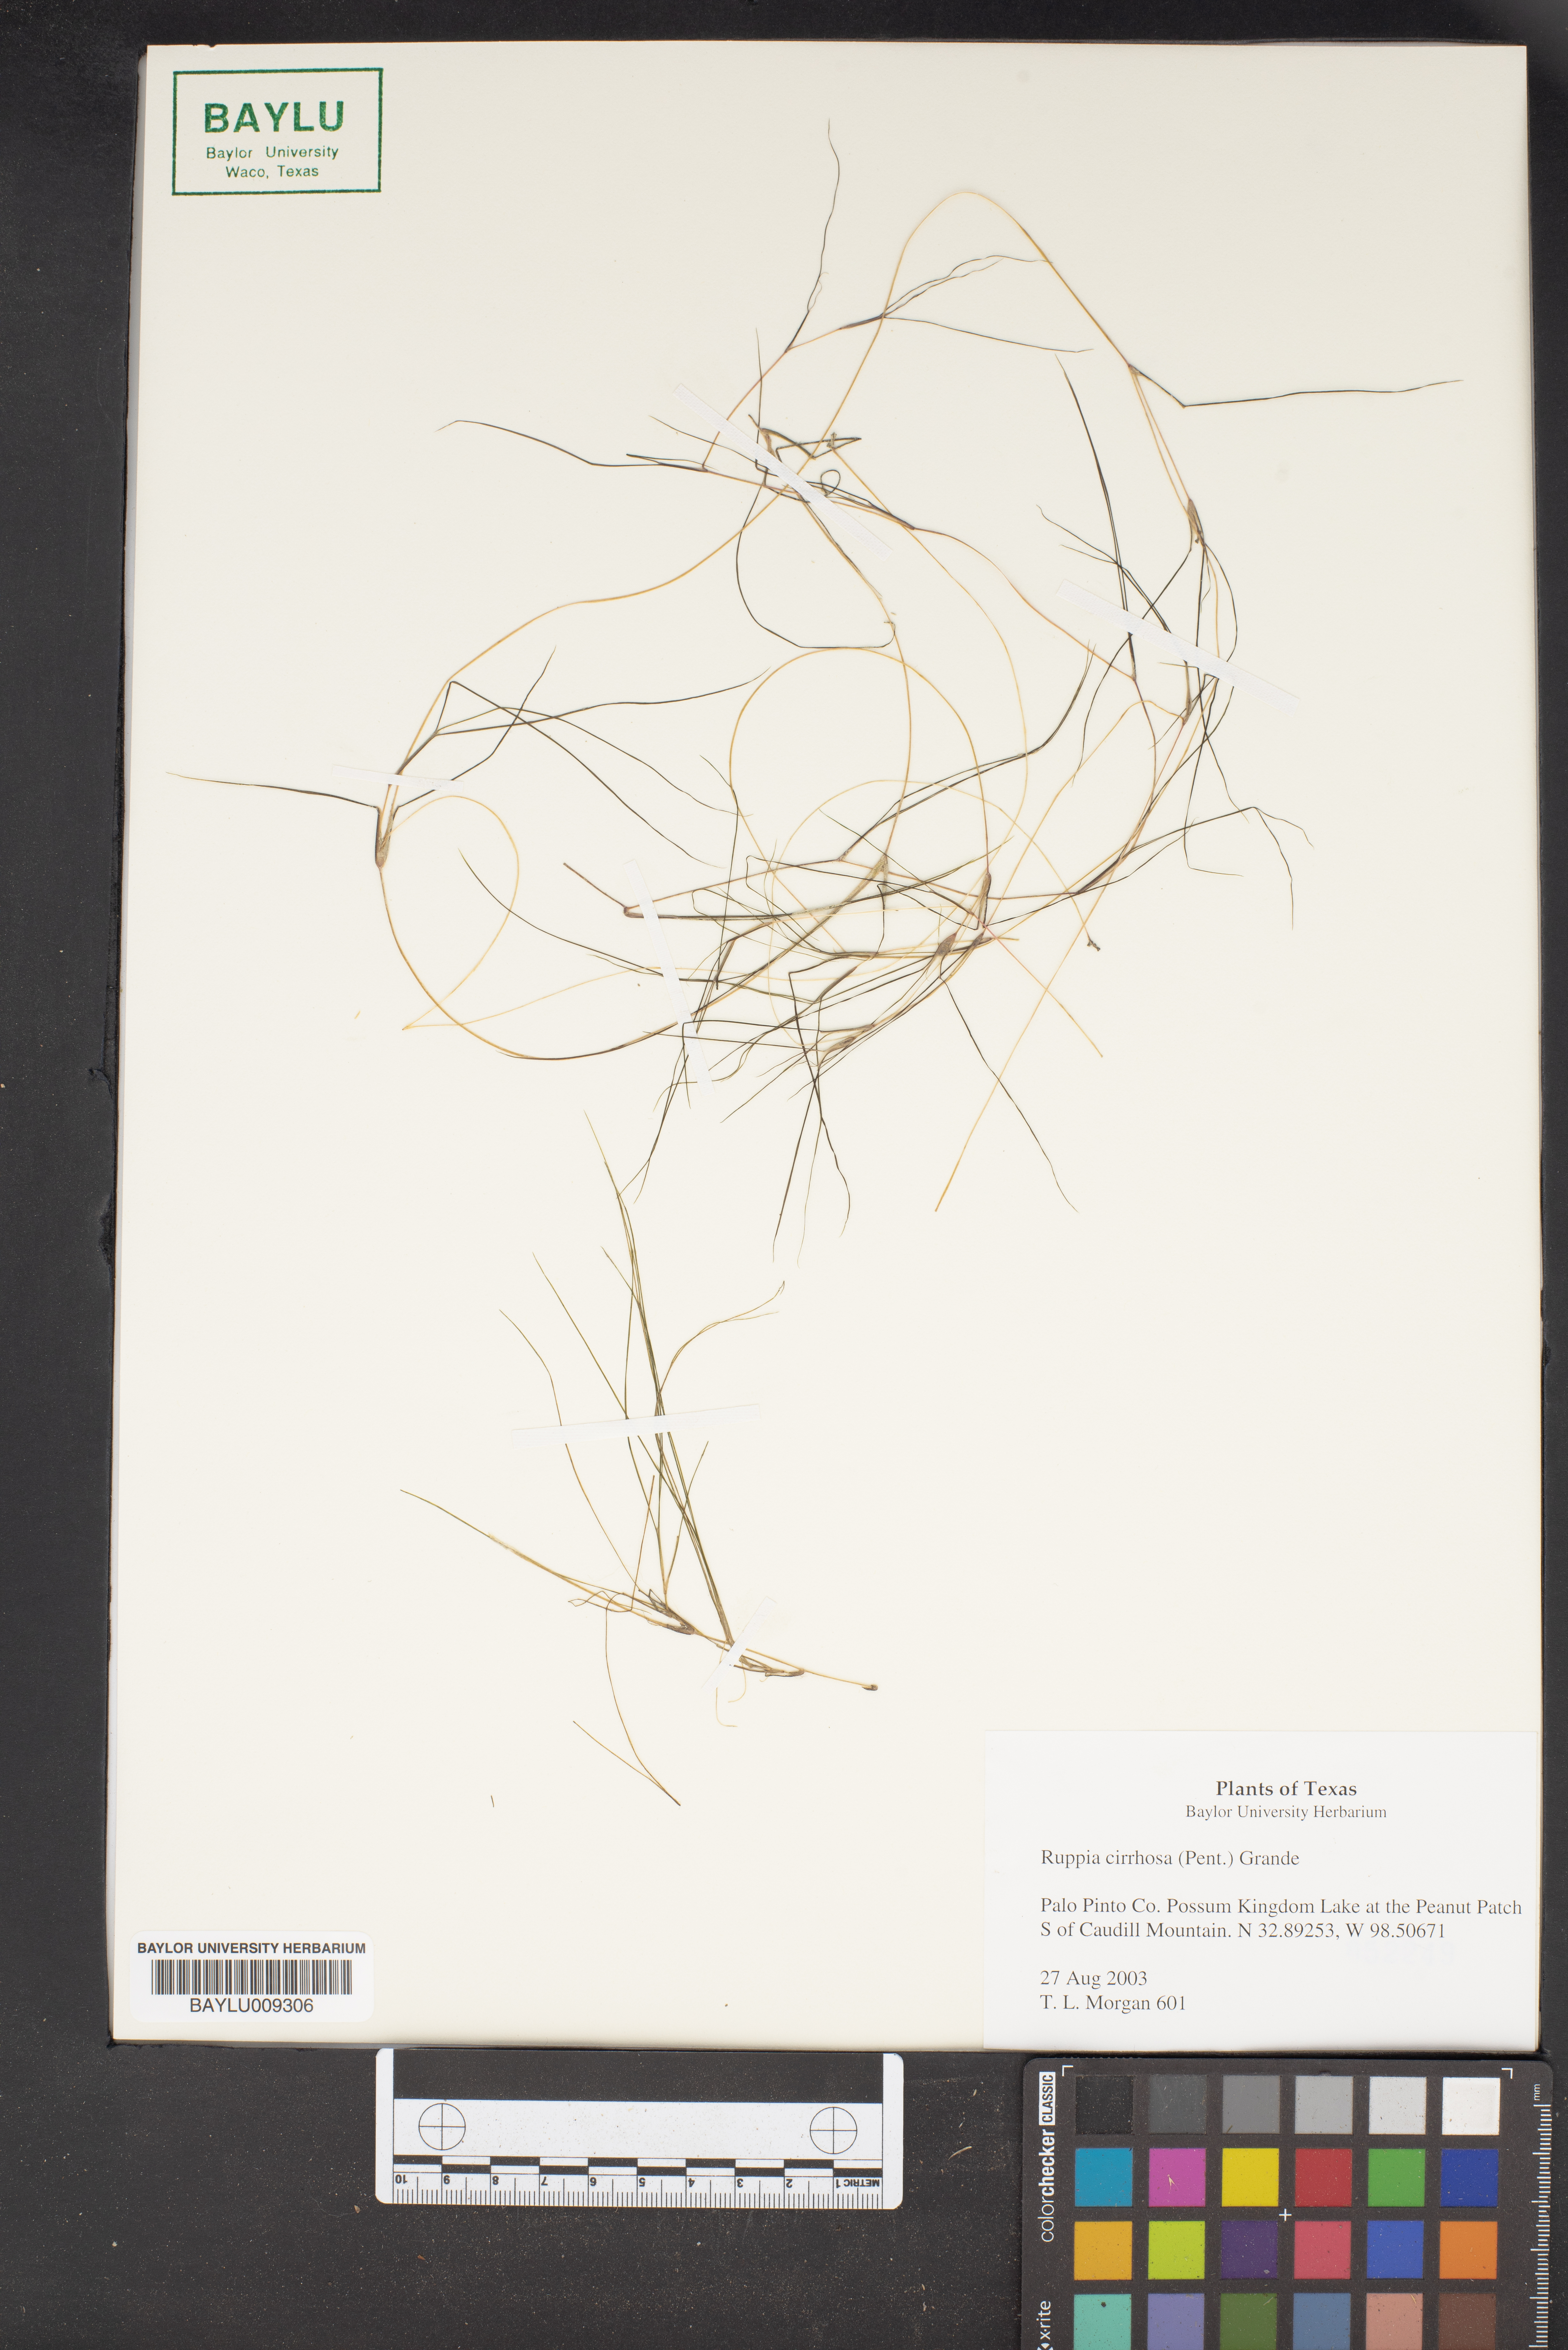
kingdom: Plantae
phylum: Tracheophyta
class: Liliopsida
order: Alismatales
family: Ruppiaceae
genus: Ruppia
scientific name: Ruppia cirrhosa
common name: Spiral tasselweed
